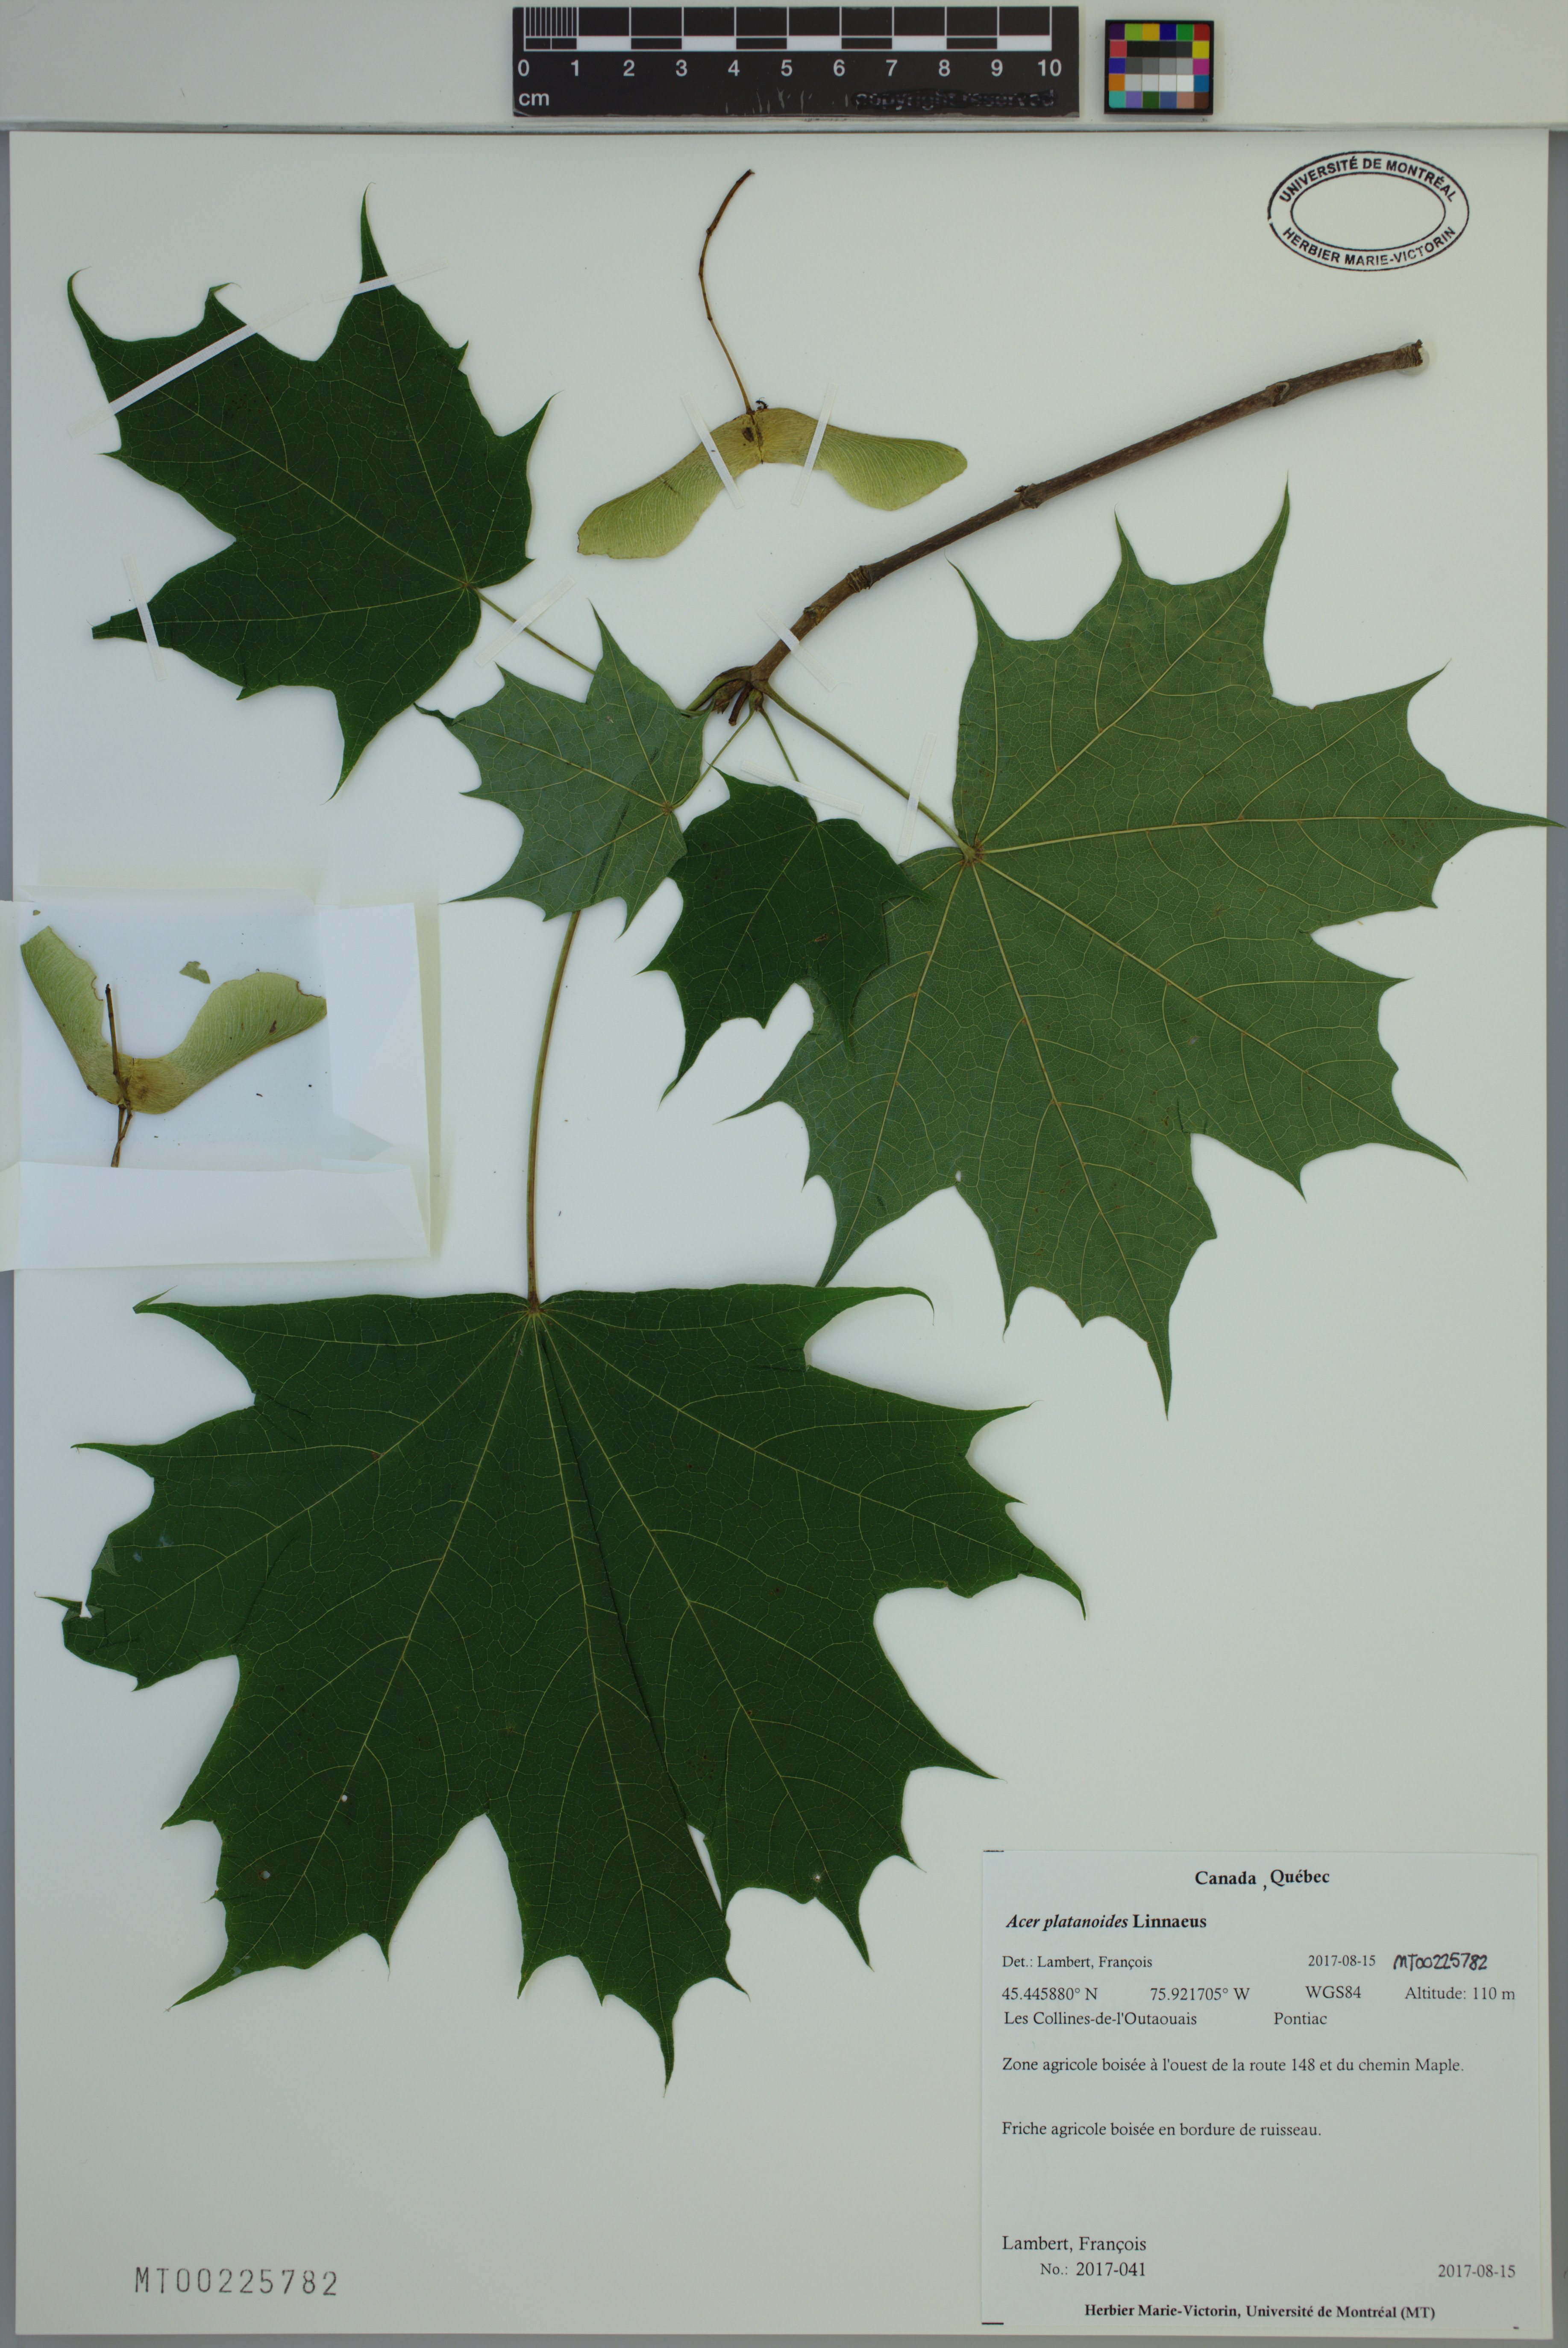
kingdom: Plantae
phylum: Tracheophyta
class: Magnoliopsida
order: Sapindales
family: Sapindaceae
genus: Acer
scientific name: Acer platanoides
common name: Norway maple
